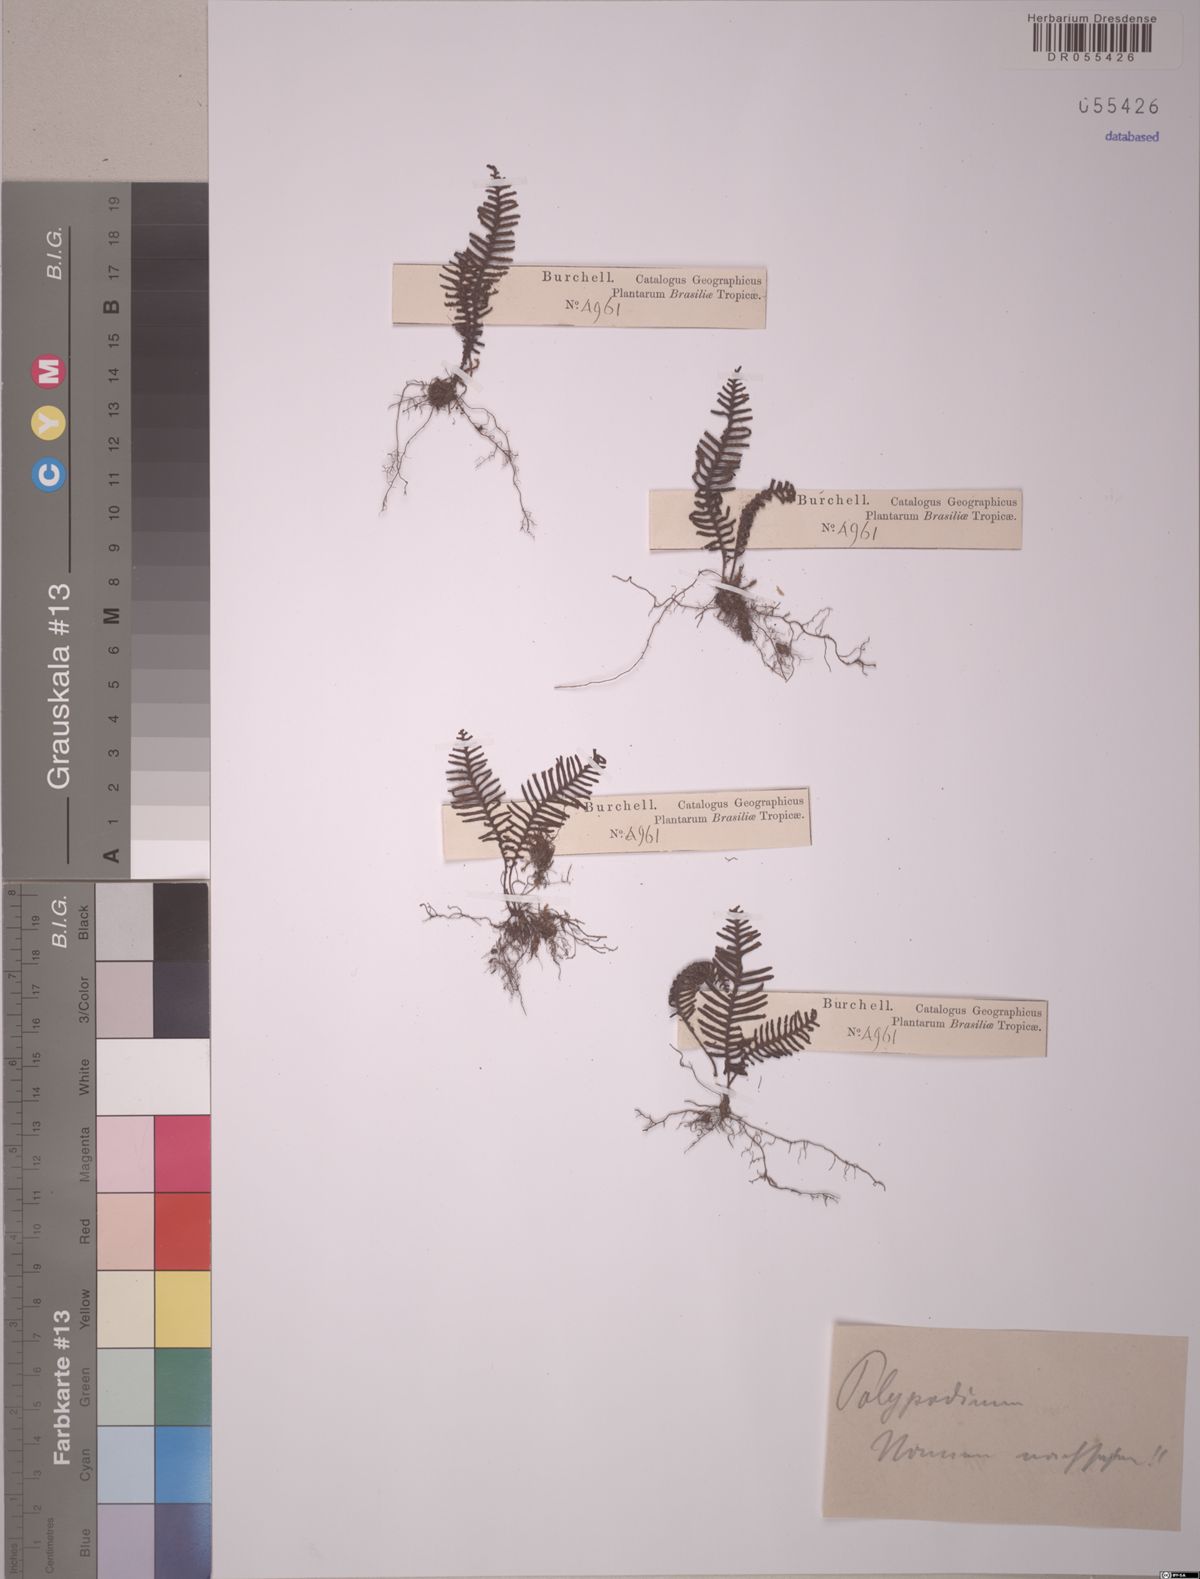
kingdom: Plantae
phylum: Tracheophyta
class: Polypodiopsida
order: Polypodiales
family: Polypodiaceae
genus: Pecluma
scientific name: Pecluma filicula
